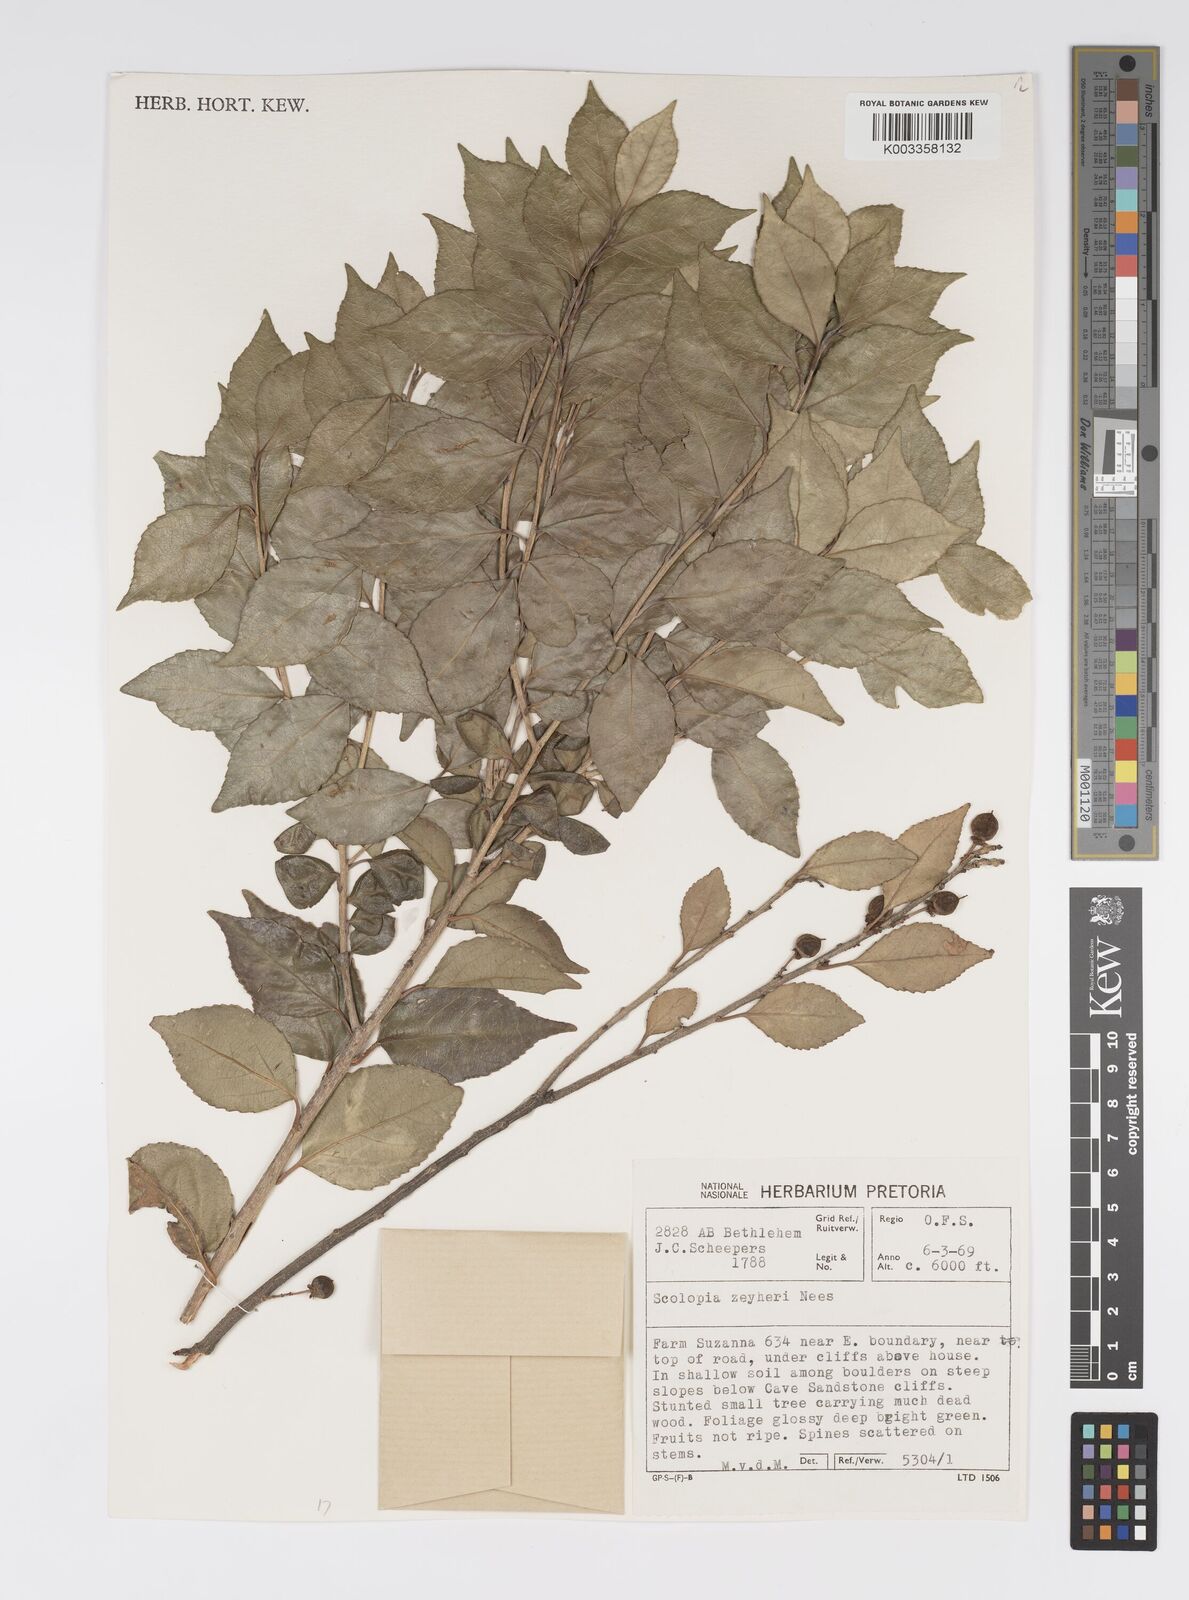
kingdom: Plantae
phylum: Tracheophyta
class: Magnoliopsida
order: Malpighiales
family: Salicaceae
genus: Scolopia
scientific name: Scolopia zeyheri
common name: Thorn pear
